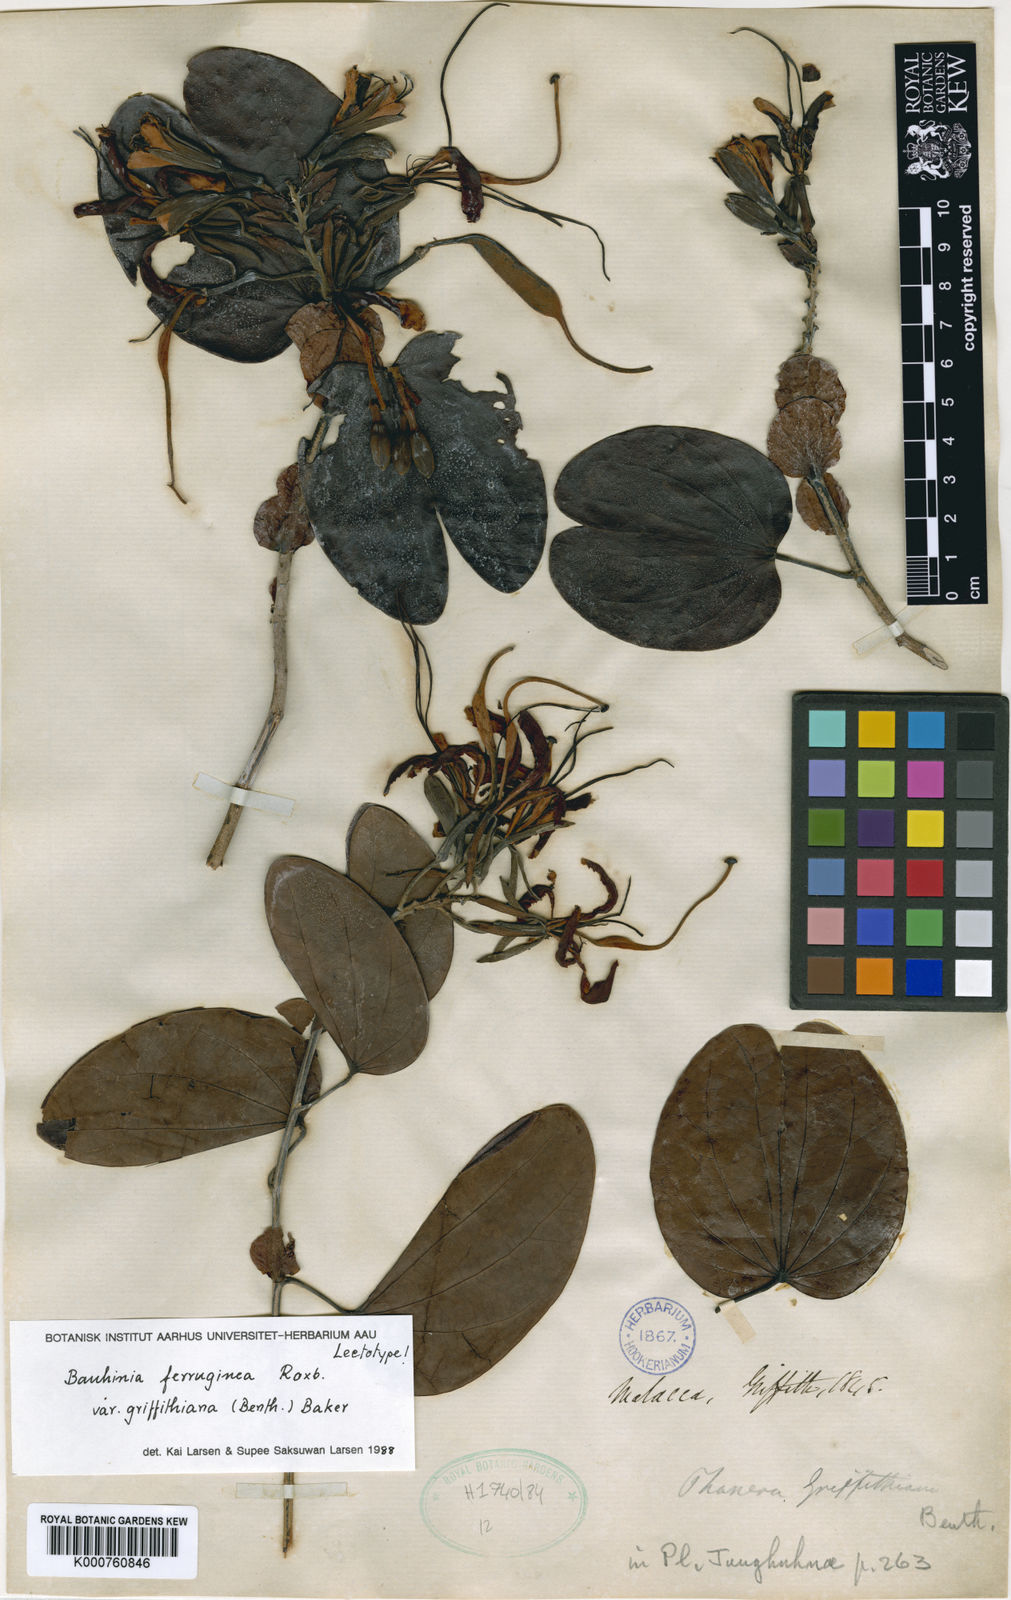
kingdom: Plantae
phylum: Tracheophyta
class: Magnoliopsida
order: Fabales
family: Fabaceae
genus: Phanera
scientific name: Phanera ferruginea
